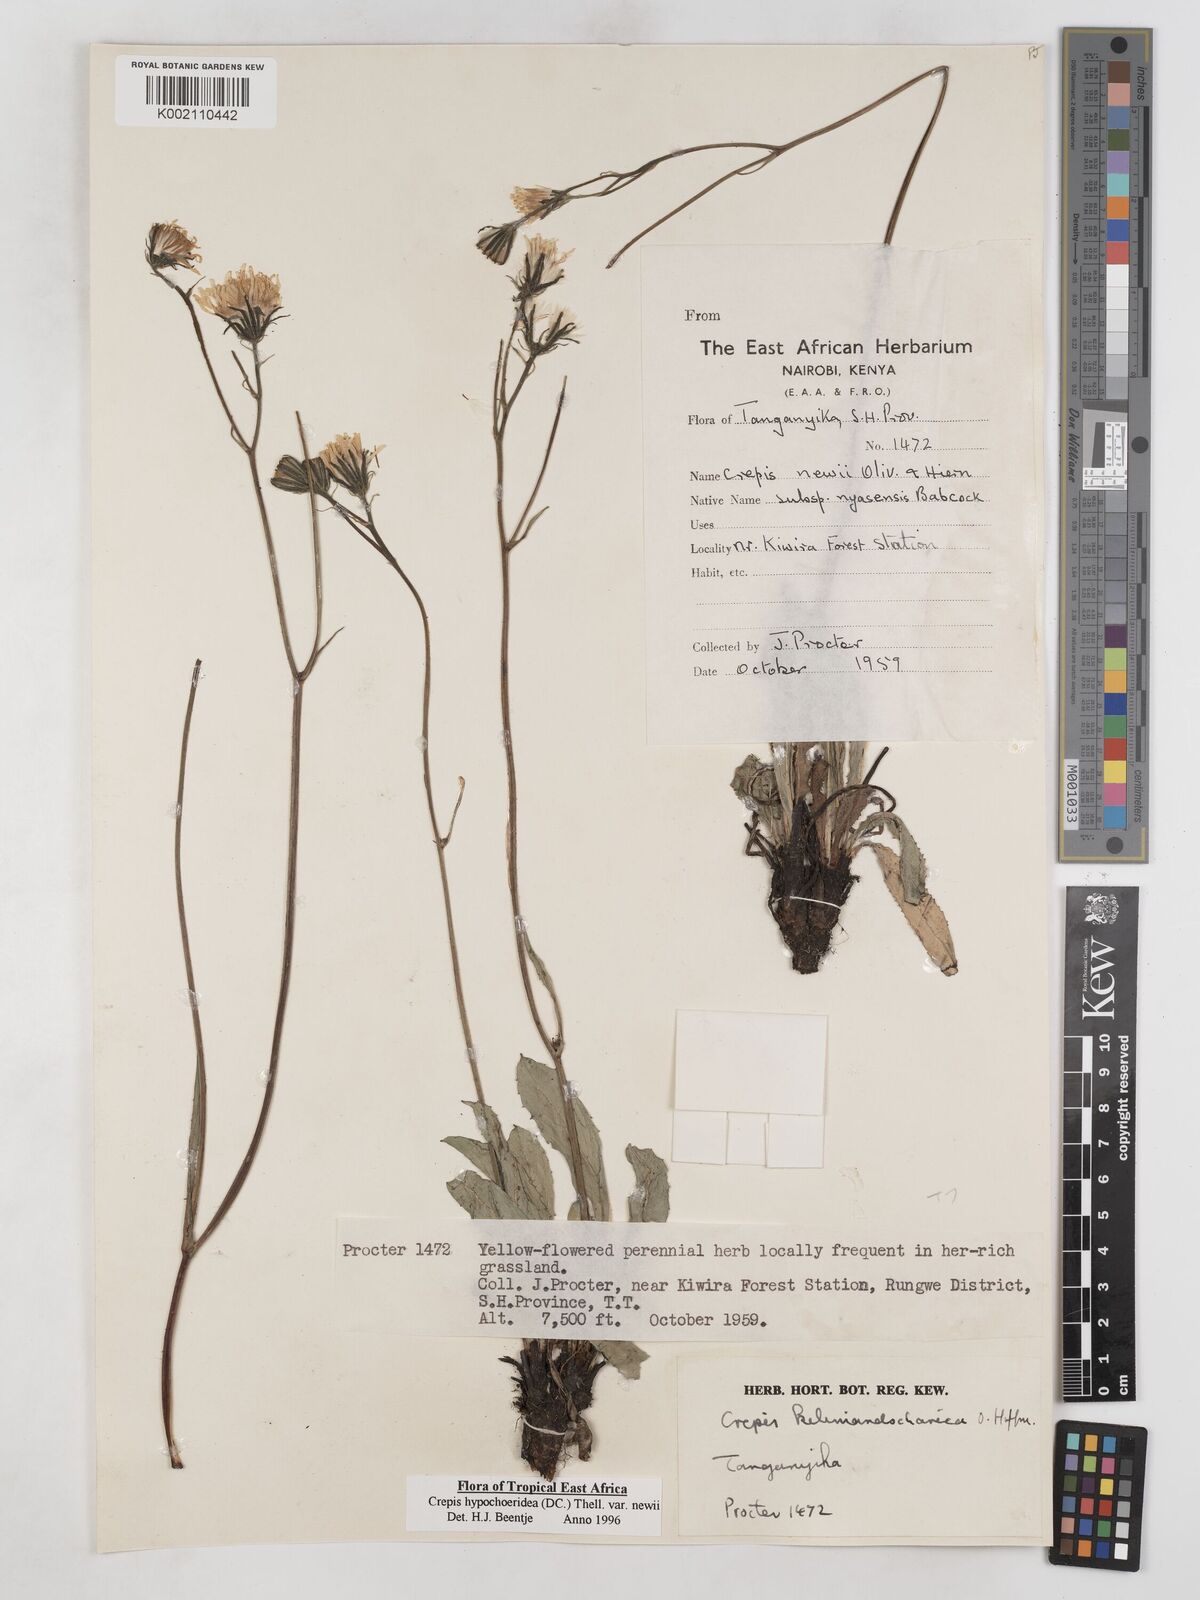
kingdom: Plantae
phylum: Tracheophyta
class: Magnoliopsida
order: Asterales
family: Asteraceae
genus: Crepis
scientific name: Crepis hypochoeridea
